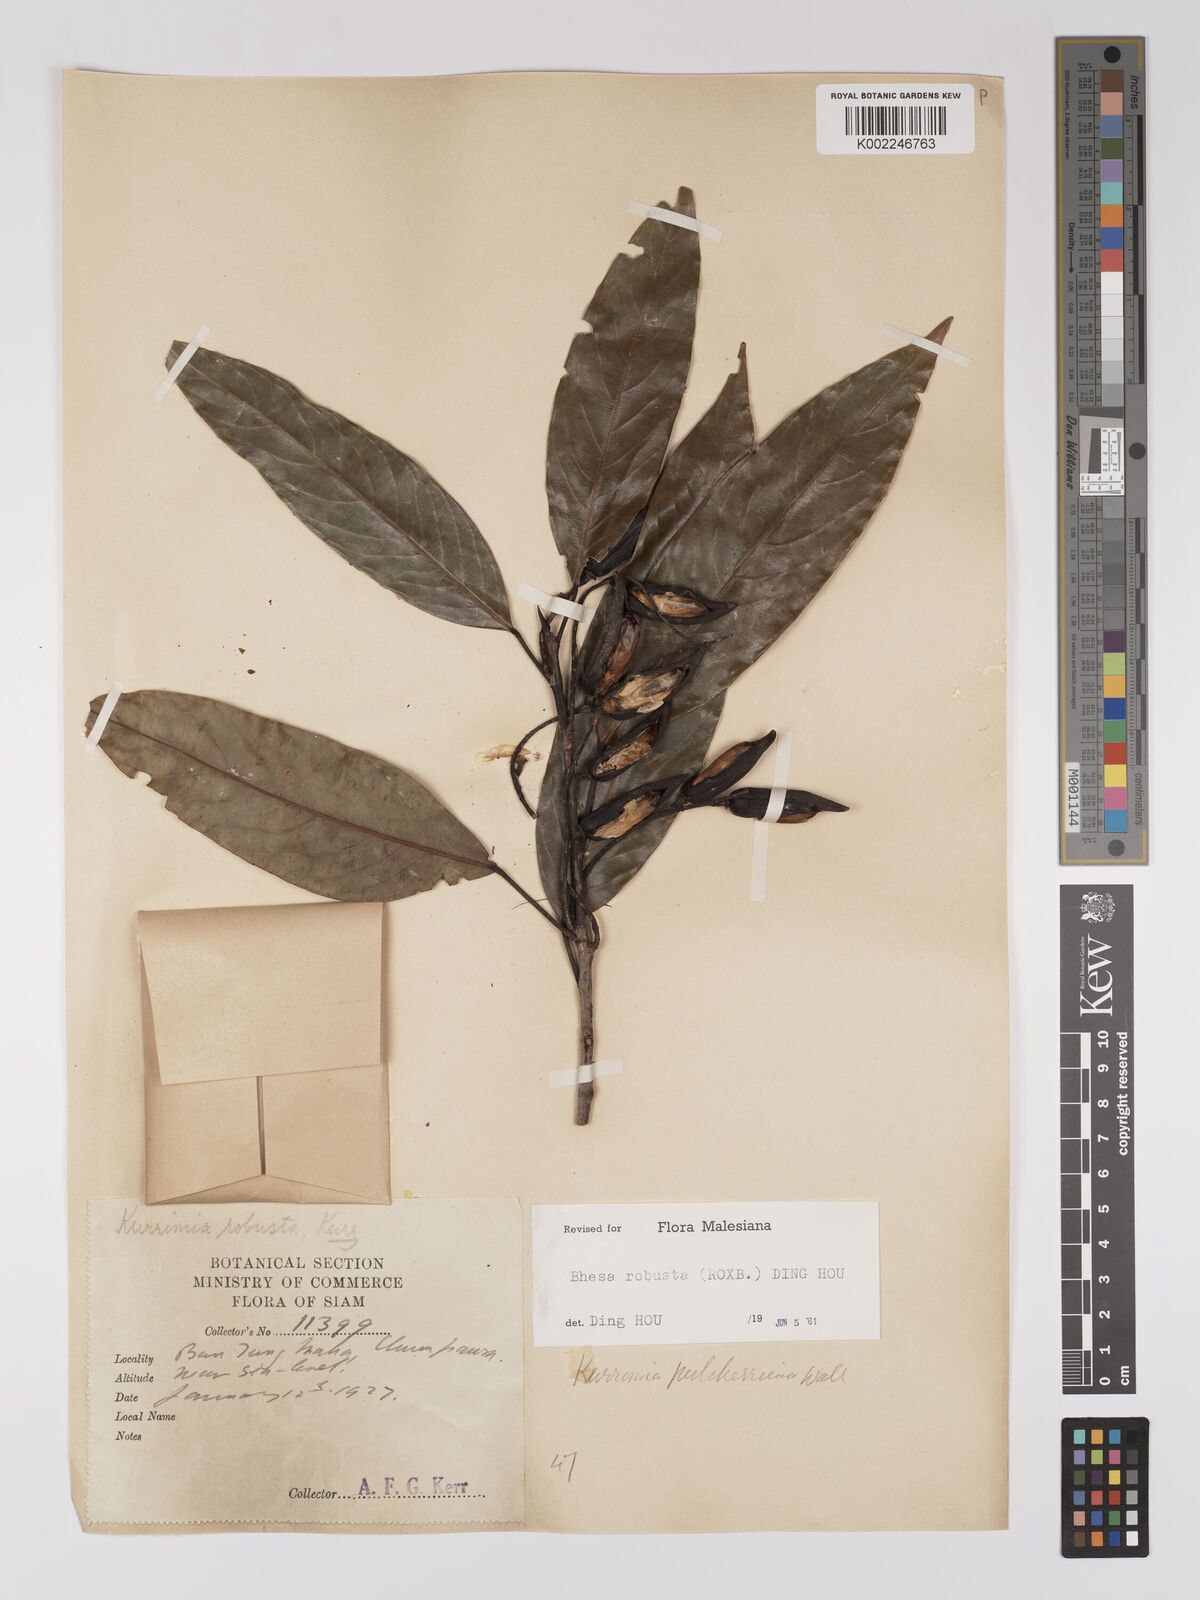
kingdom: Plantae
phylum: Tracheophyta
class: Magnoliopsida
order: Malpighiales
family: Centroplacaceae
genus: Bhesa
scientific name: Bhesa robusta
